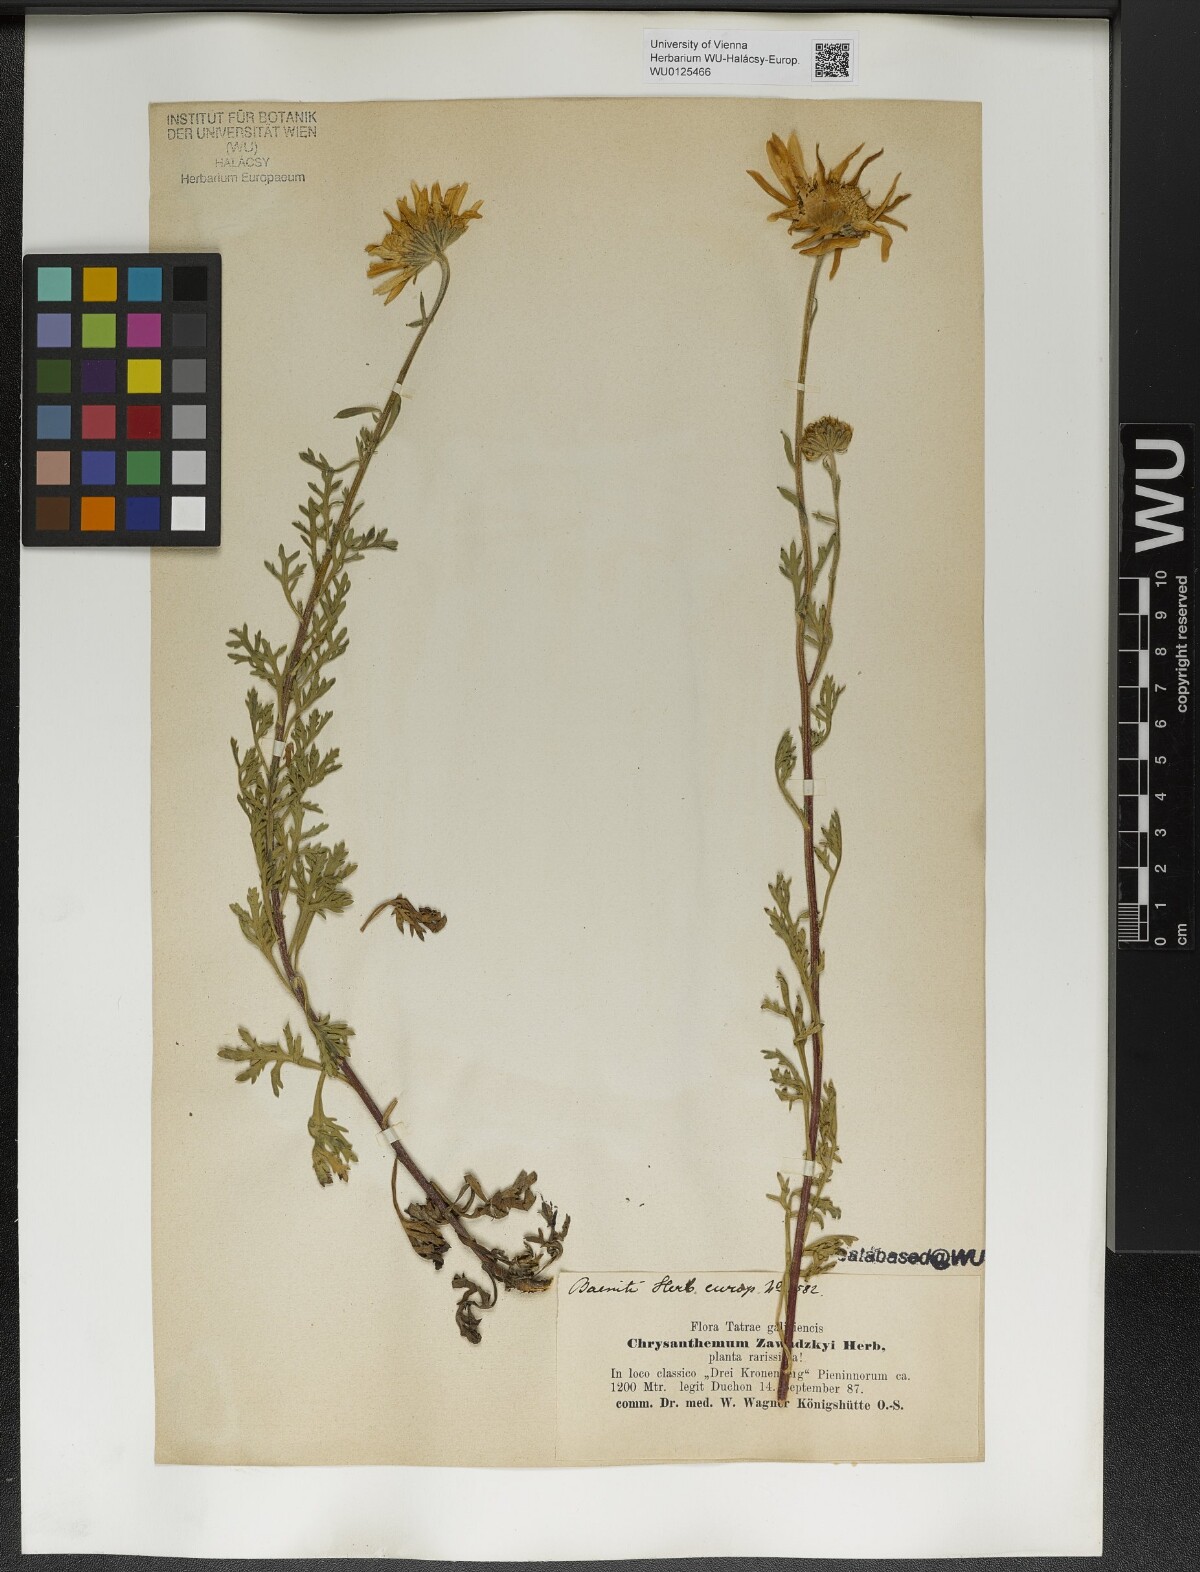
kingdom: Plantae
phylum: Tracheophyta
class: Magnoliopsida
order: Asterales
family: Asteraceae
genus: Chrysanthemum
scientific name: Chrysanthemum zawadzkii
